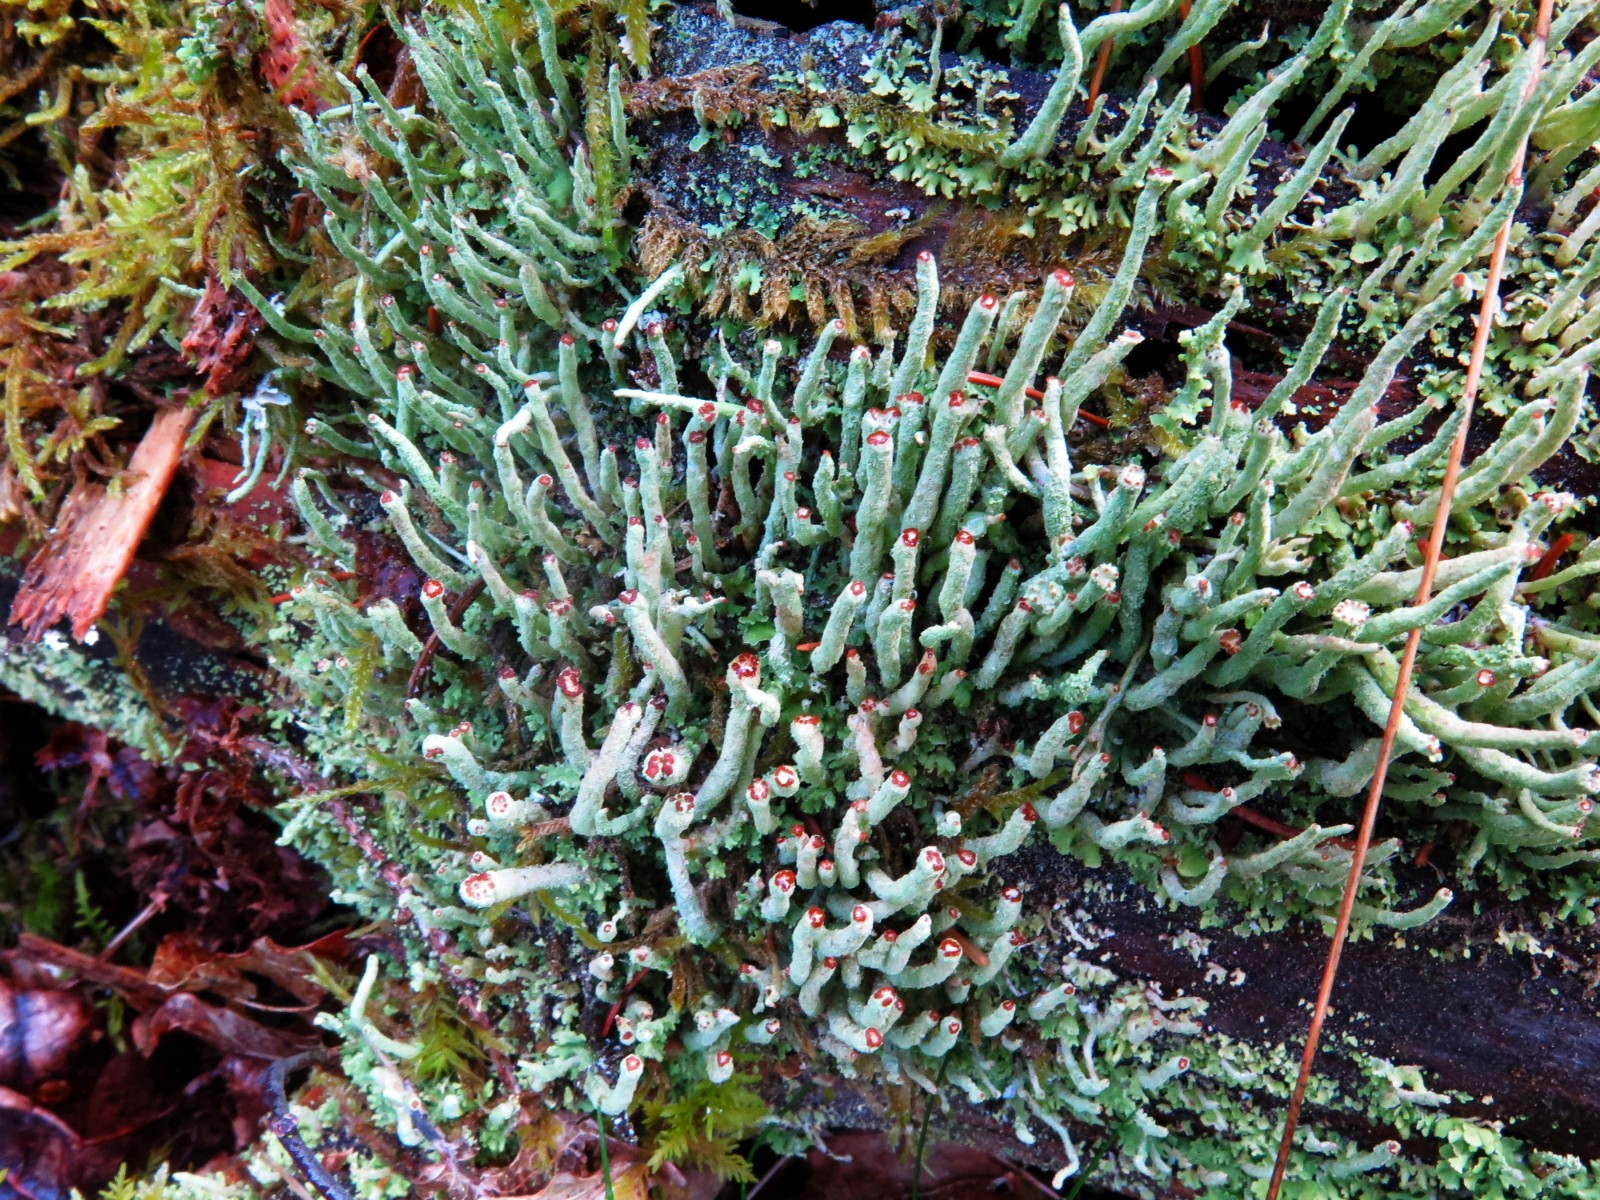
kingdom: Fungi
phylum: Ascomycota
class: Lecanoromycetes
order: Lecanorales
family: Cladoniaceae
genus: Cladonia
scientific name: Cladonia coniocraea
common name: træfods-bægerlav
